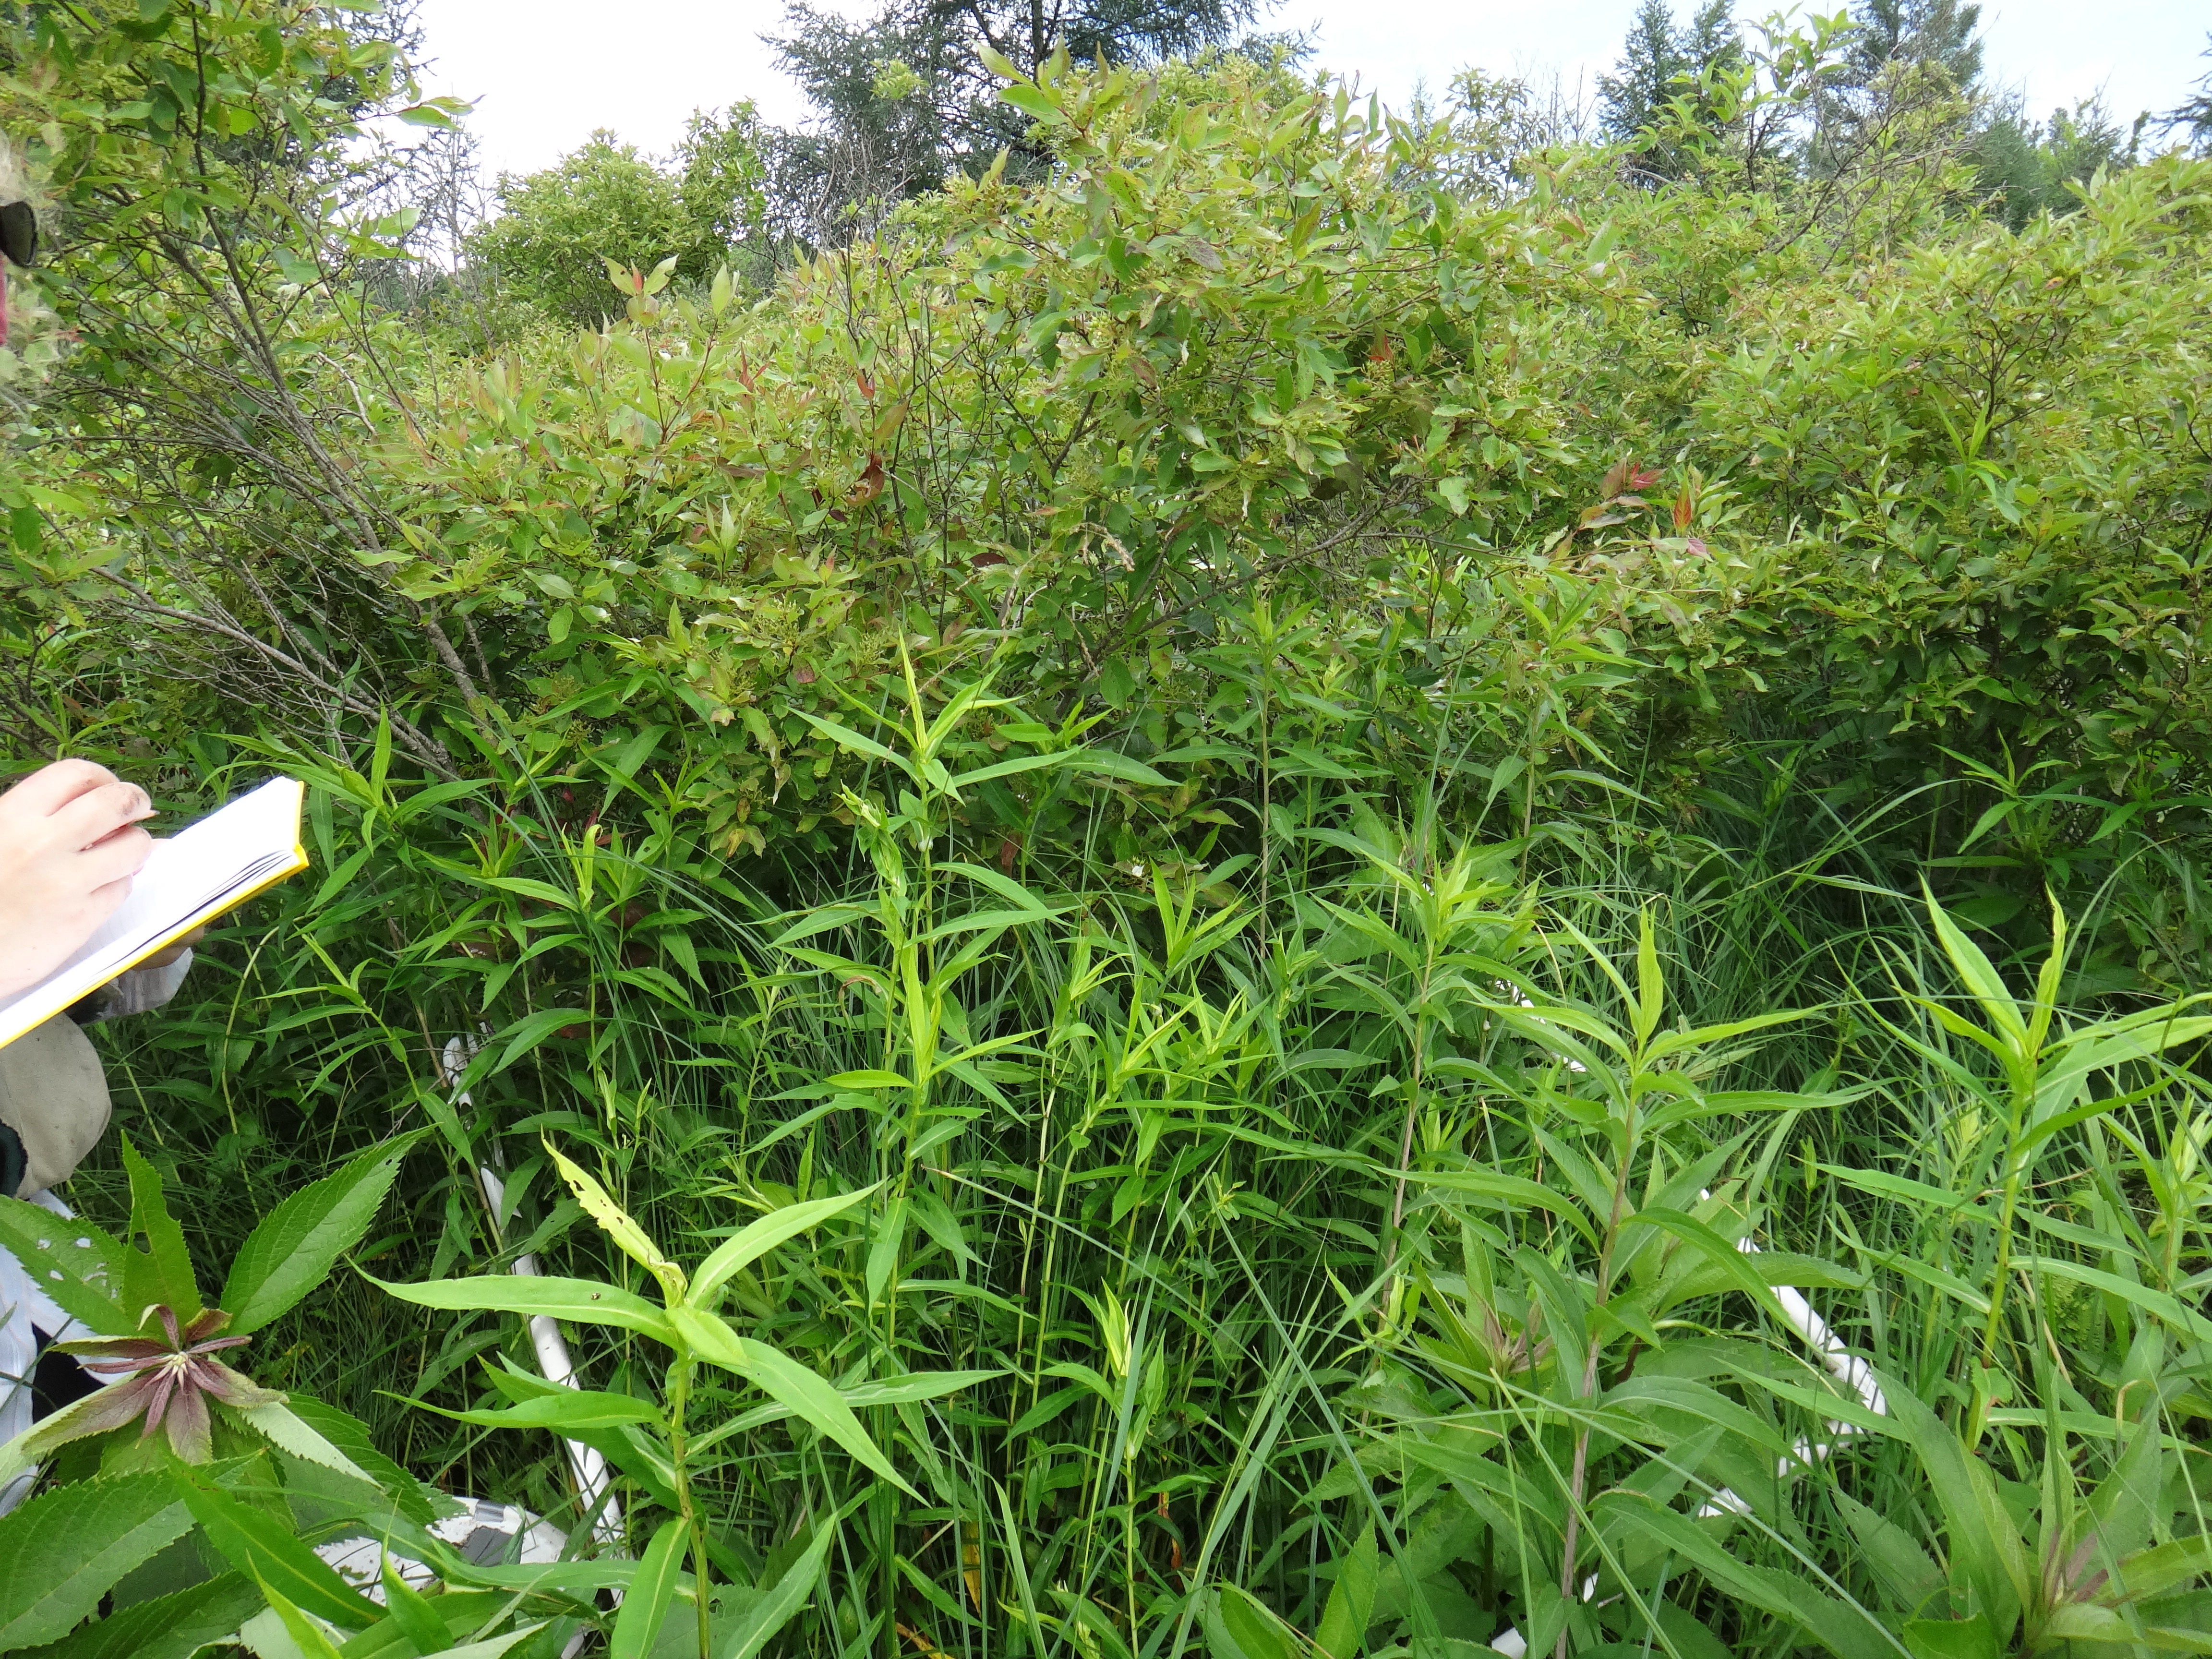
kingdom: Plantae
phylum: Tracheophyta
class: Magnoliopsida
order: Cornales
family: Cornaceae
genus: Cornus
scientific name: Cornus foemina
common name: Swamp dogwood
